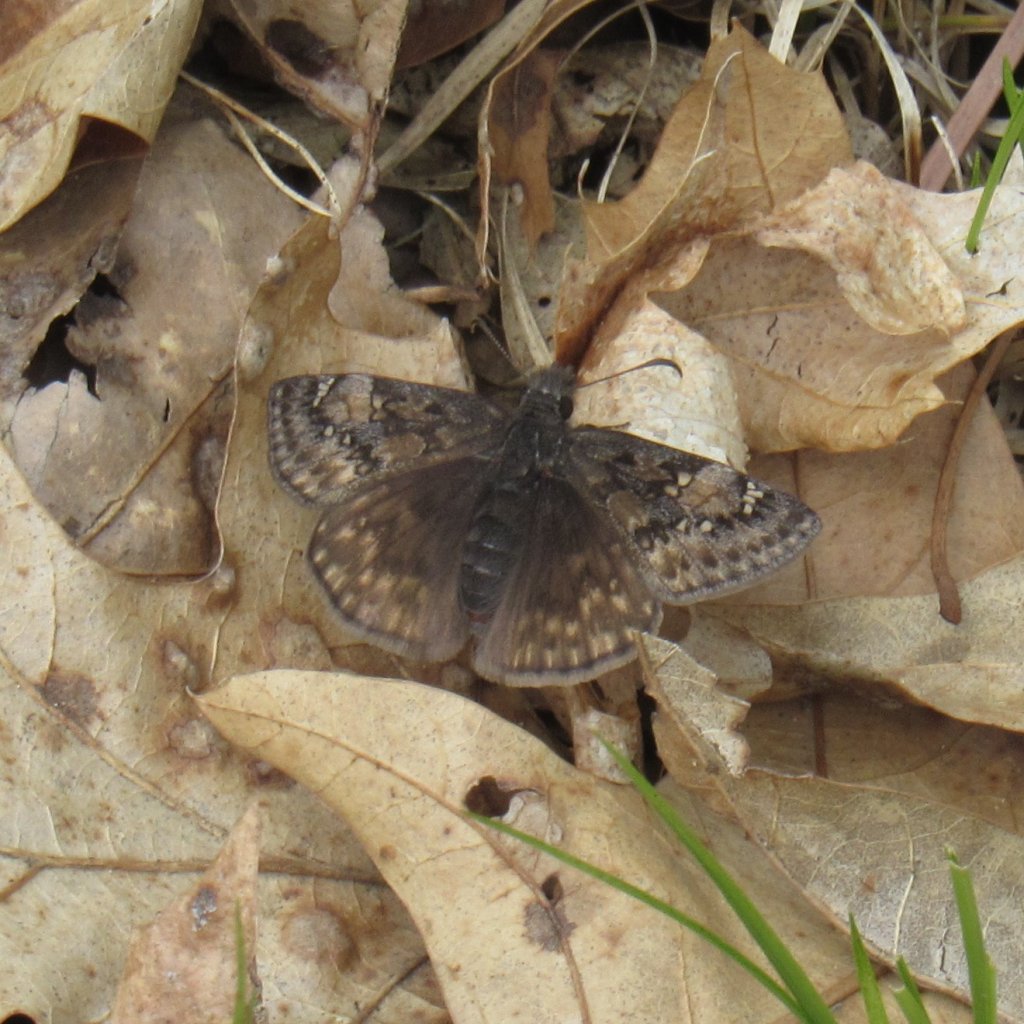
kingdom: Animalia
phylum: Arthropoda
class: Insecta
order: Lepidoptera
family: Hesperiidae
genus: Gesta
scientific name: Gesta
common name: Juvenal's Duskywing
